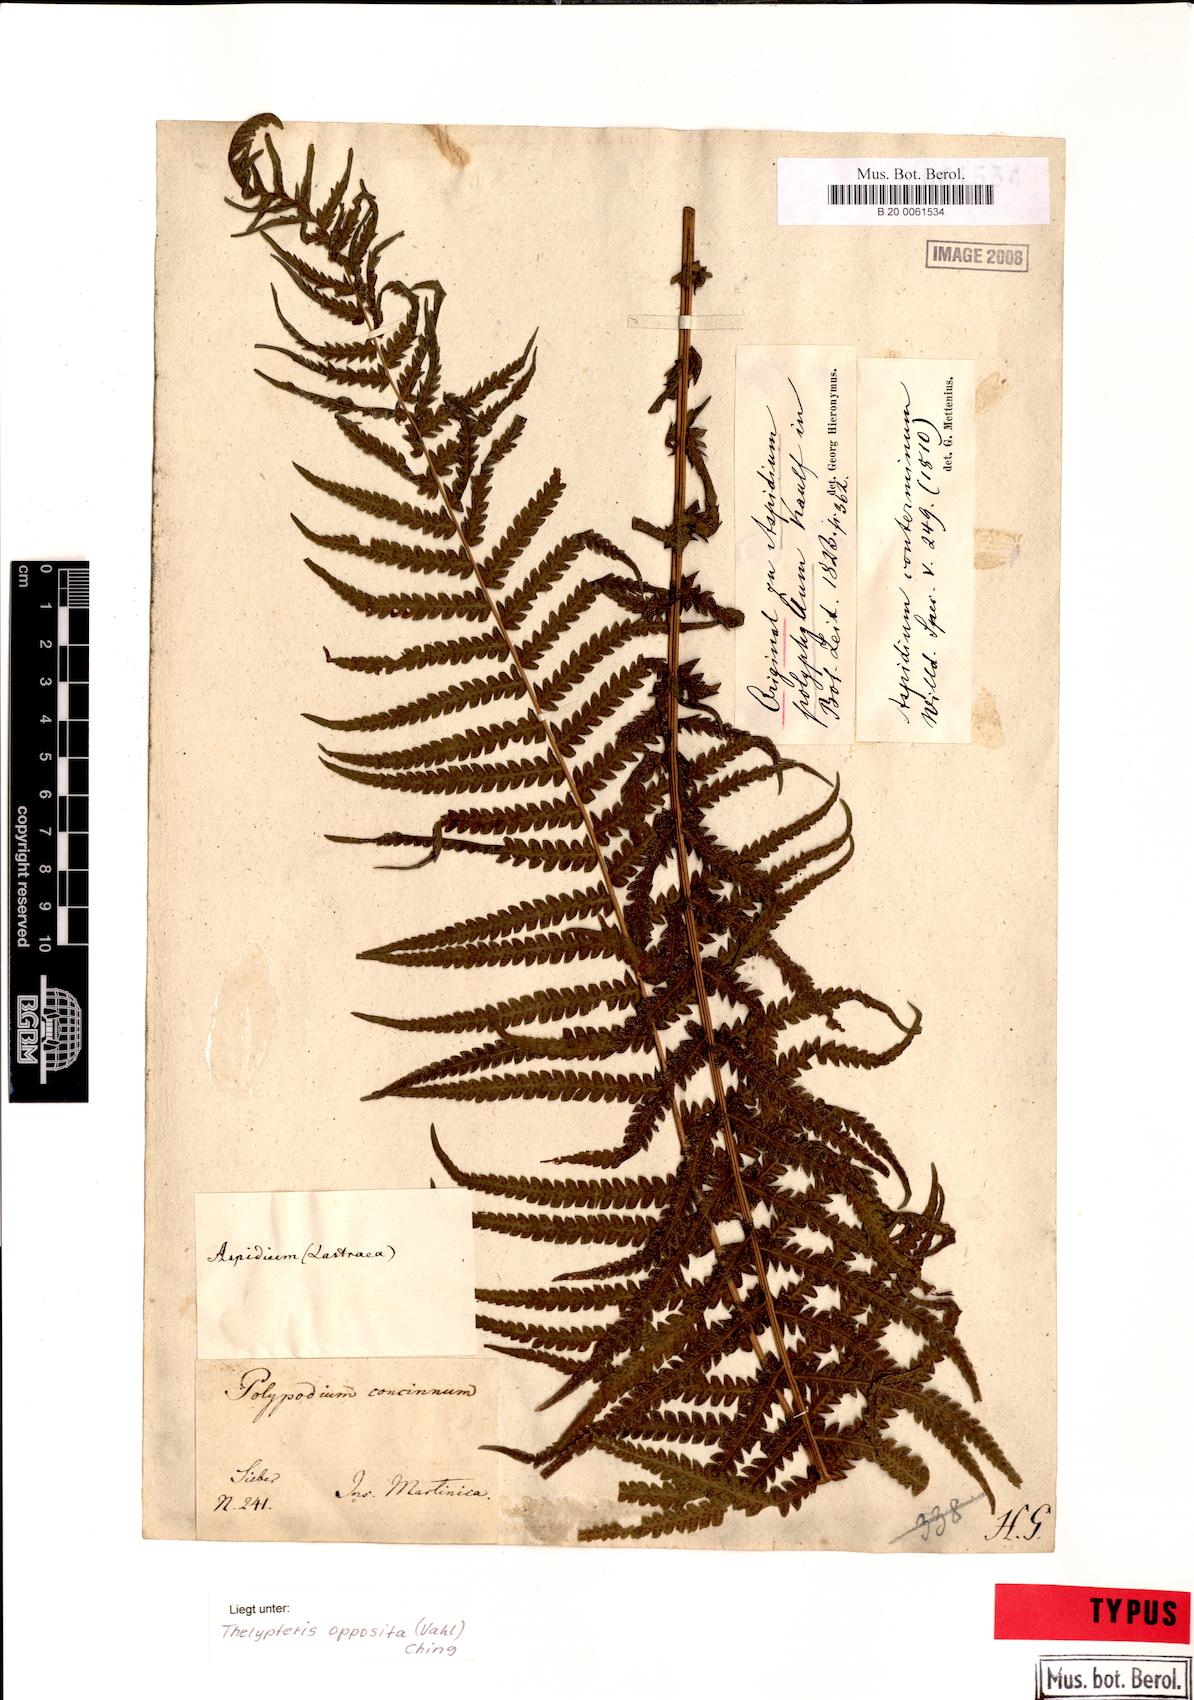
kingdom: Plantae
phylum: Tracheophyta
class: Polypodiopsida
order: Polypodiales
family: Thelypteridaceae
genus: Amauropelta
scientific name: Amauropelta opposita
